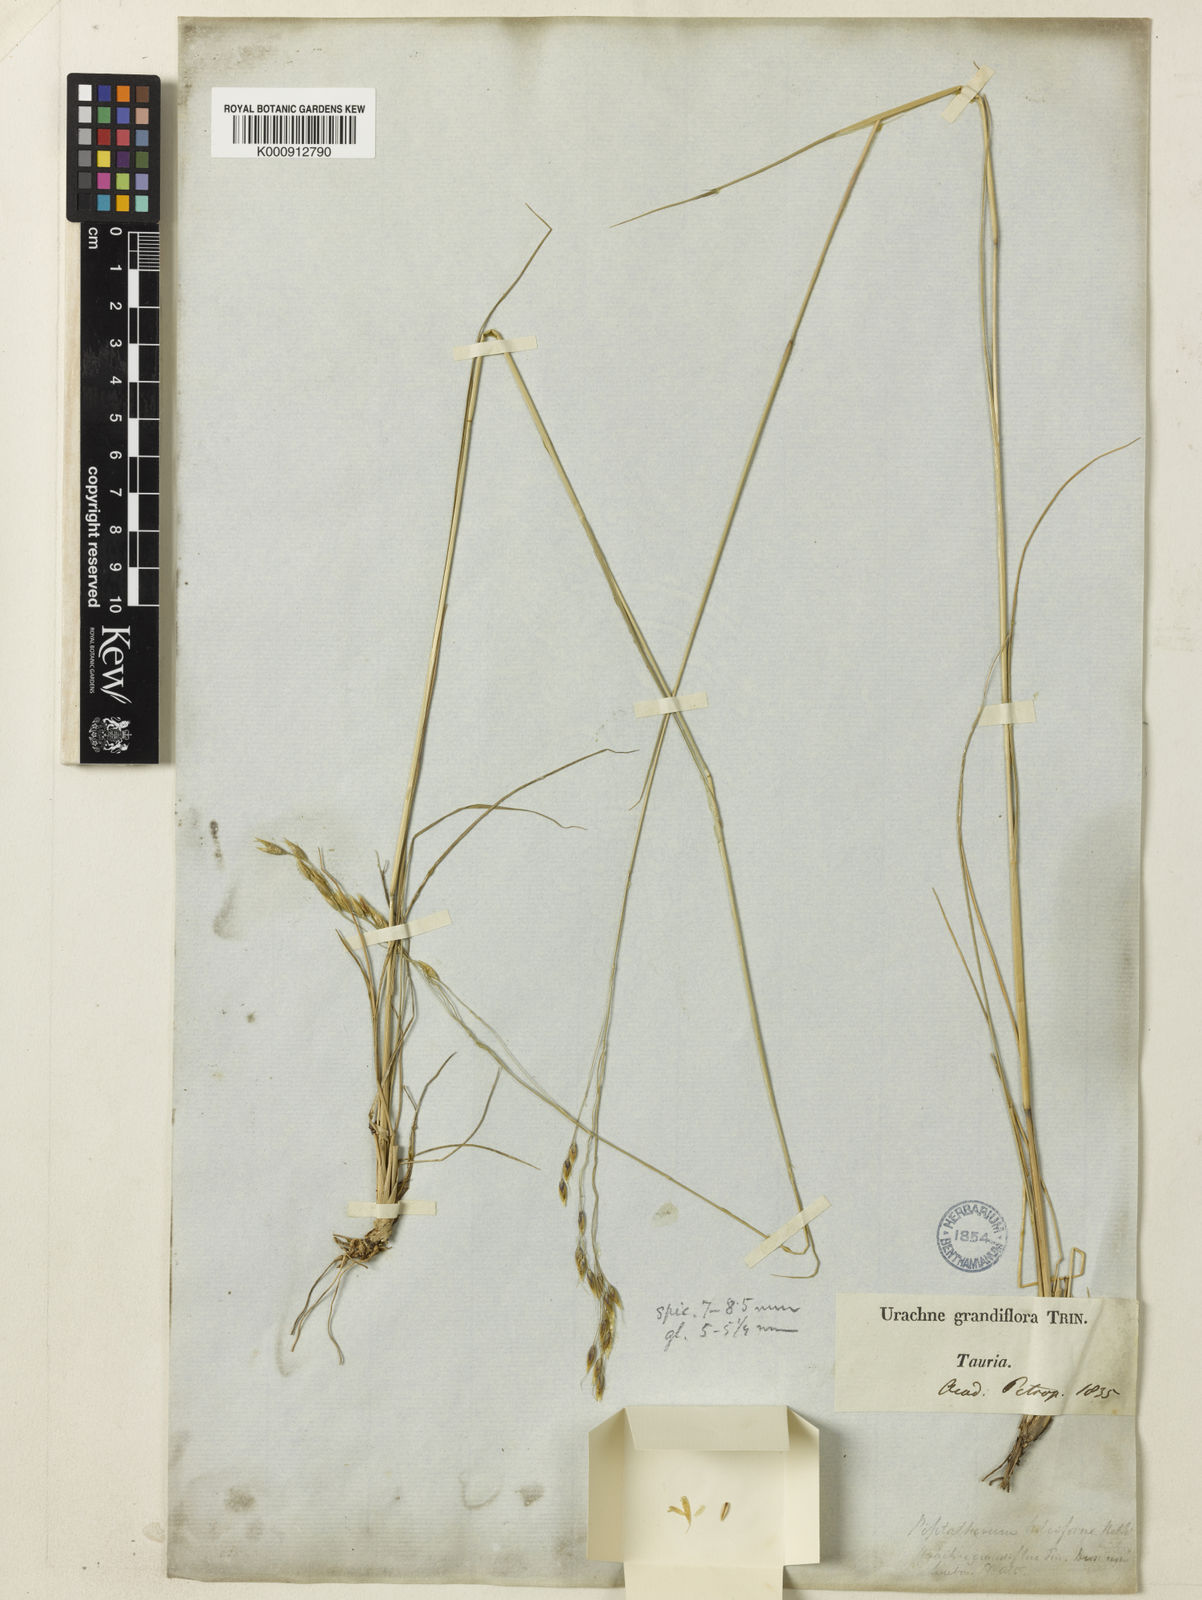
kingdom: Plantae
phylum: Tracheophyta
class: Liliopsida
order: Poales
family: Poaceae
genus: Piptatherum
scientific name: Piptatherum holciforme
